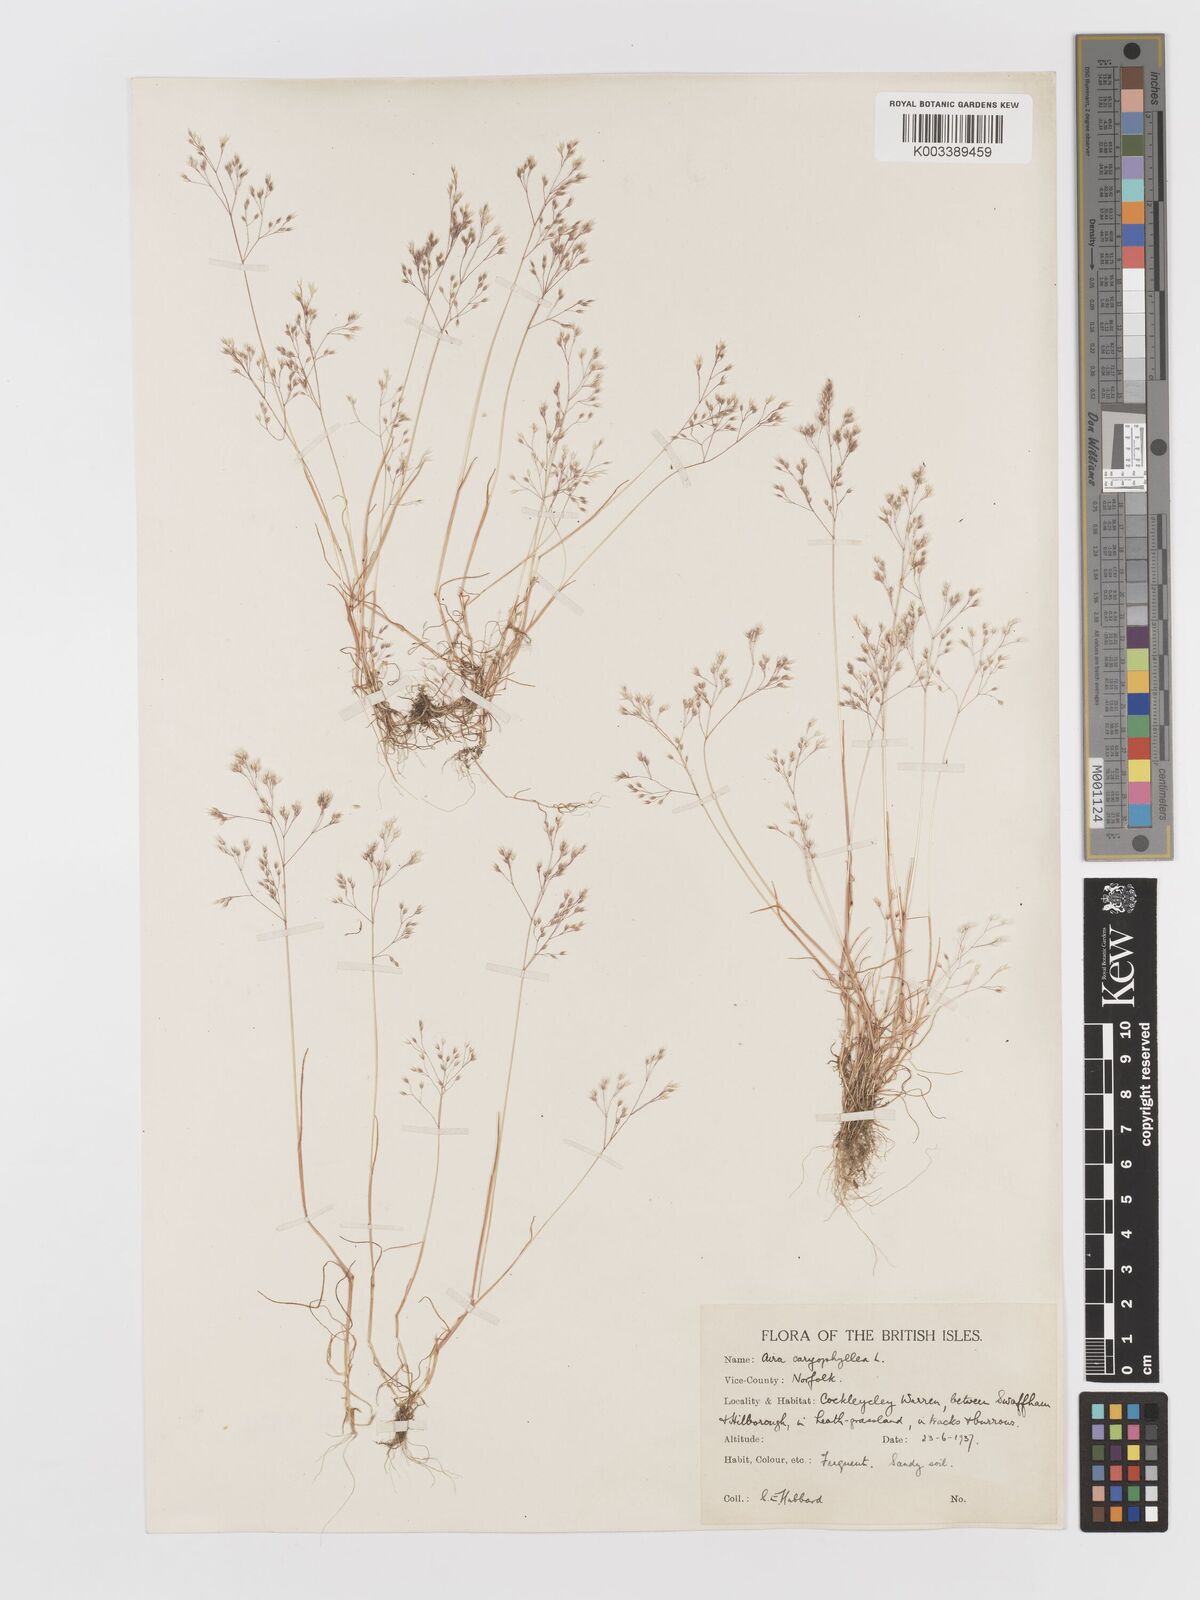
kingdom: Plantae
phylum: Tracheophyta
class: Liliopsida
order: Poales
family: Poaceae
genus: Aira
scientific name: Aira caryophyllea
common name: Silver hairgrass
